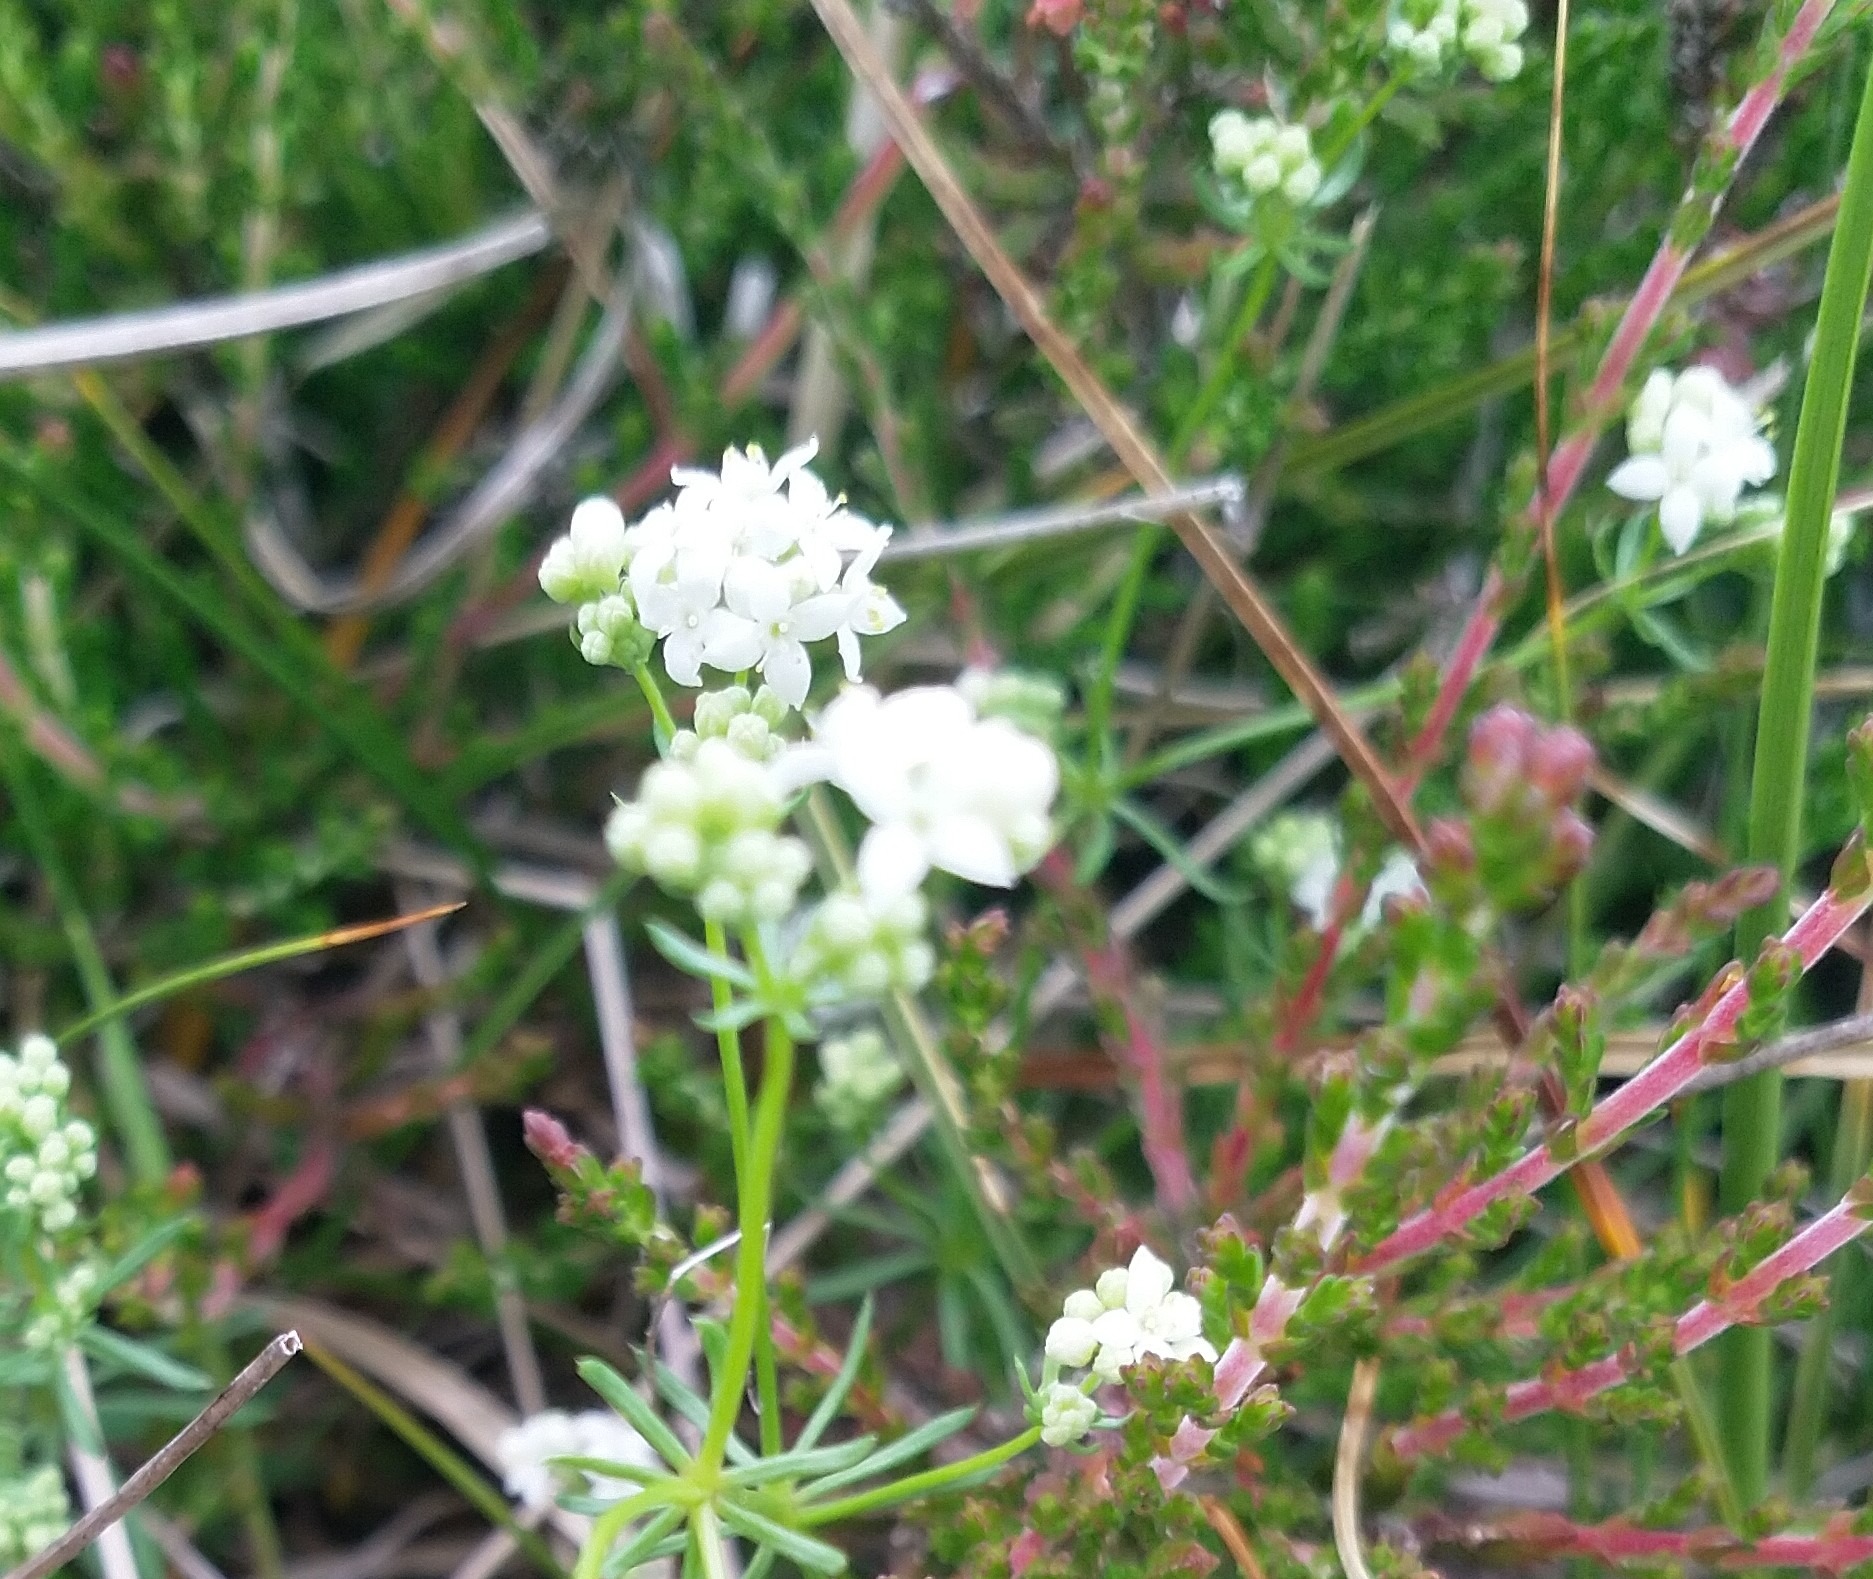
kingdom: Plantae
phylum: Tracheophyta
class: Magnoliopsida
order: Gentianales
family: Rubiaceae
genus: Galium
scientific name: Galium sterneri
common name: Liden snerre
